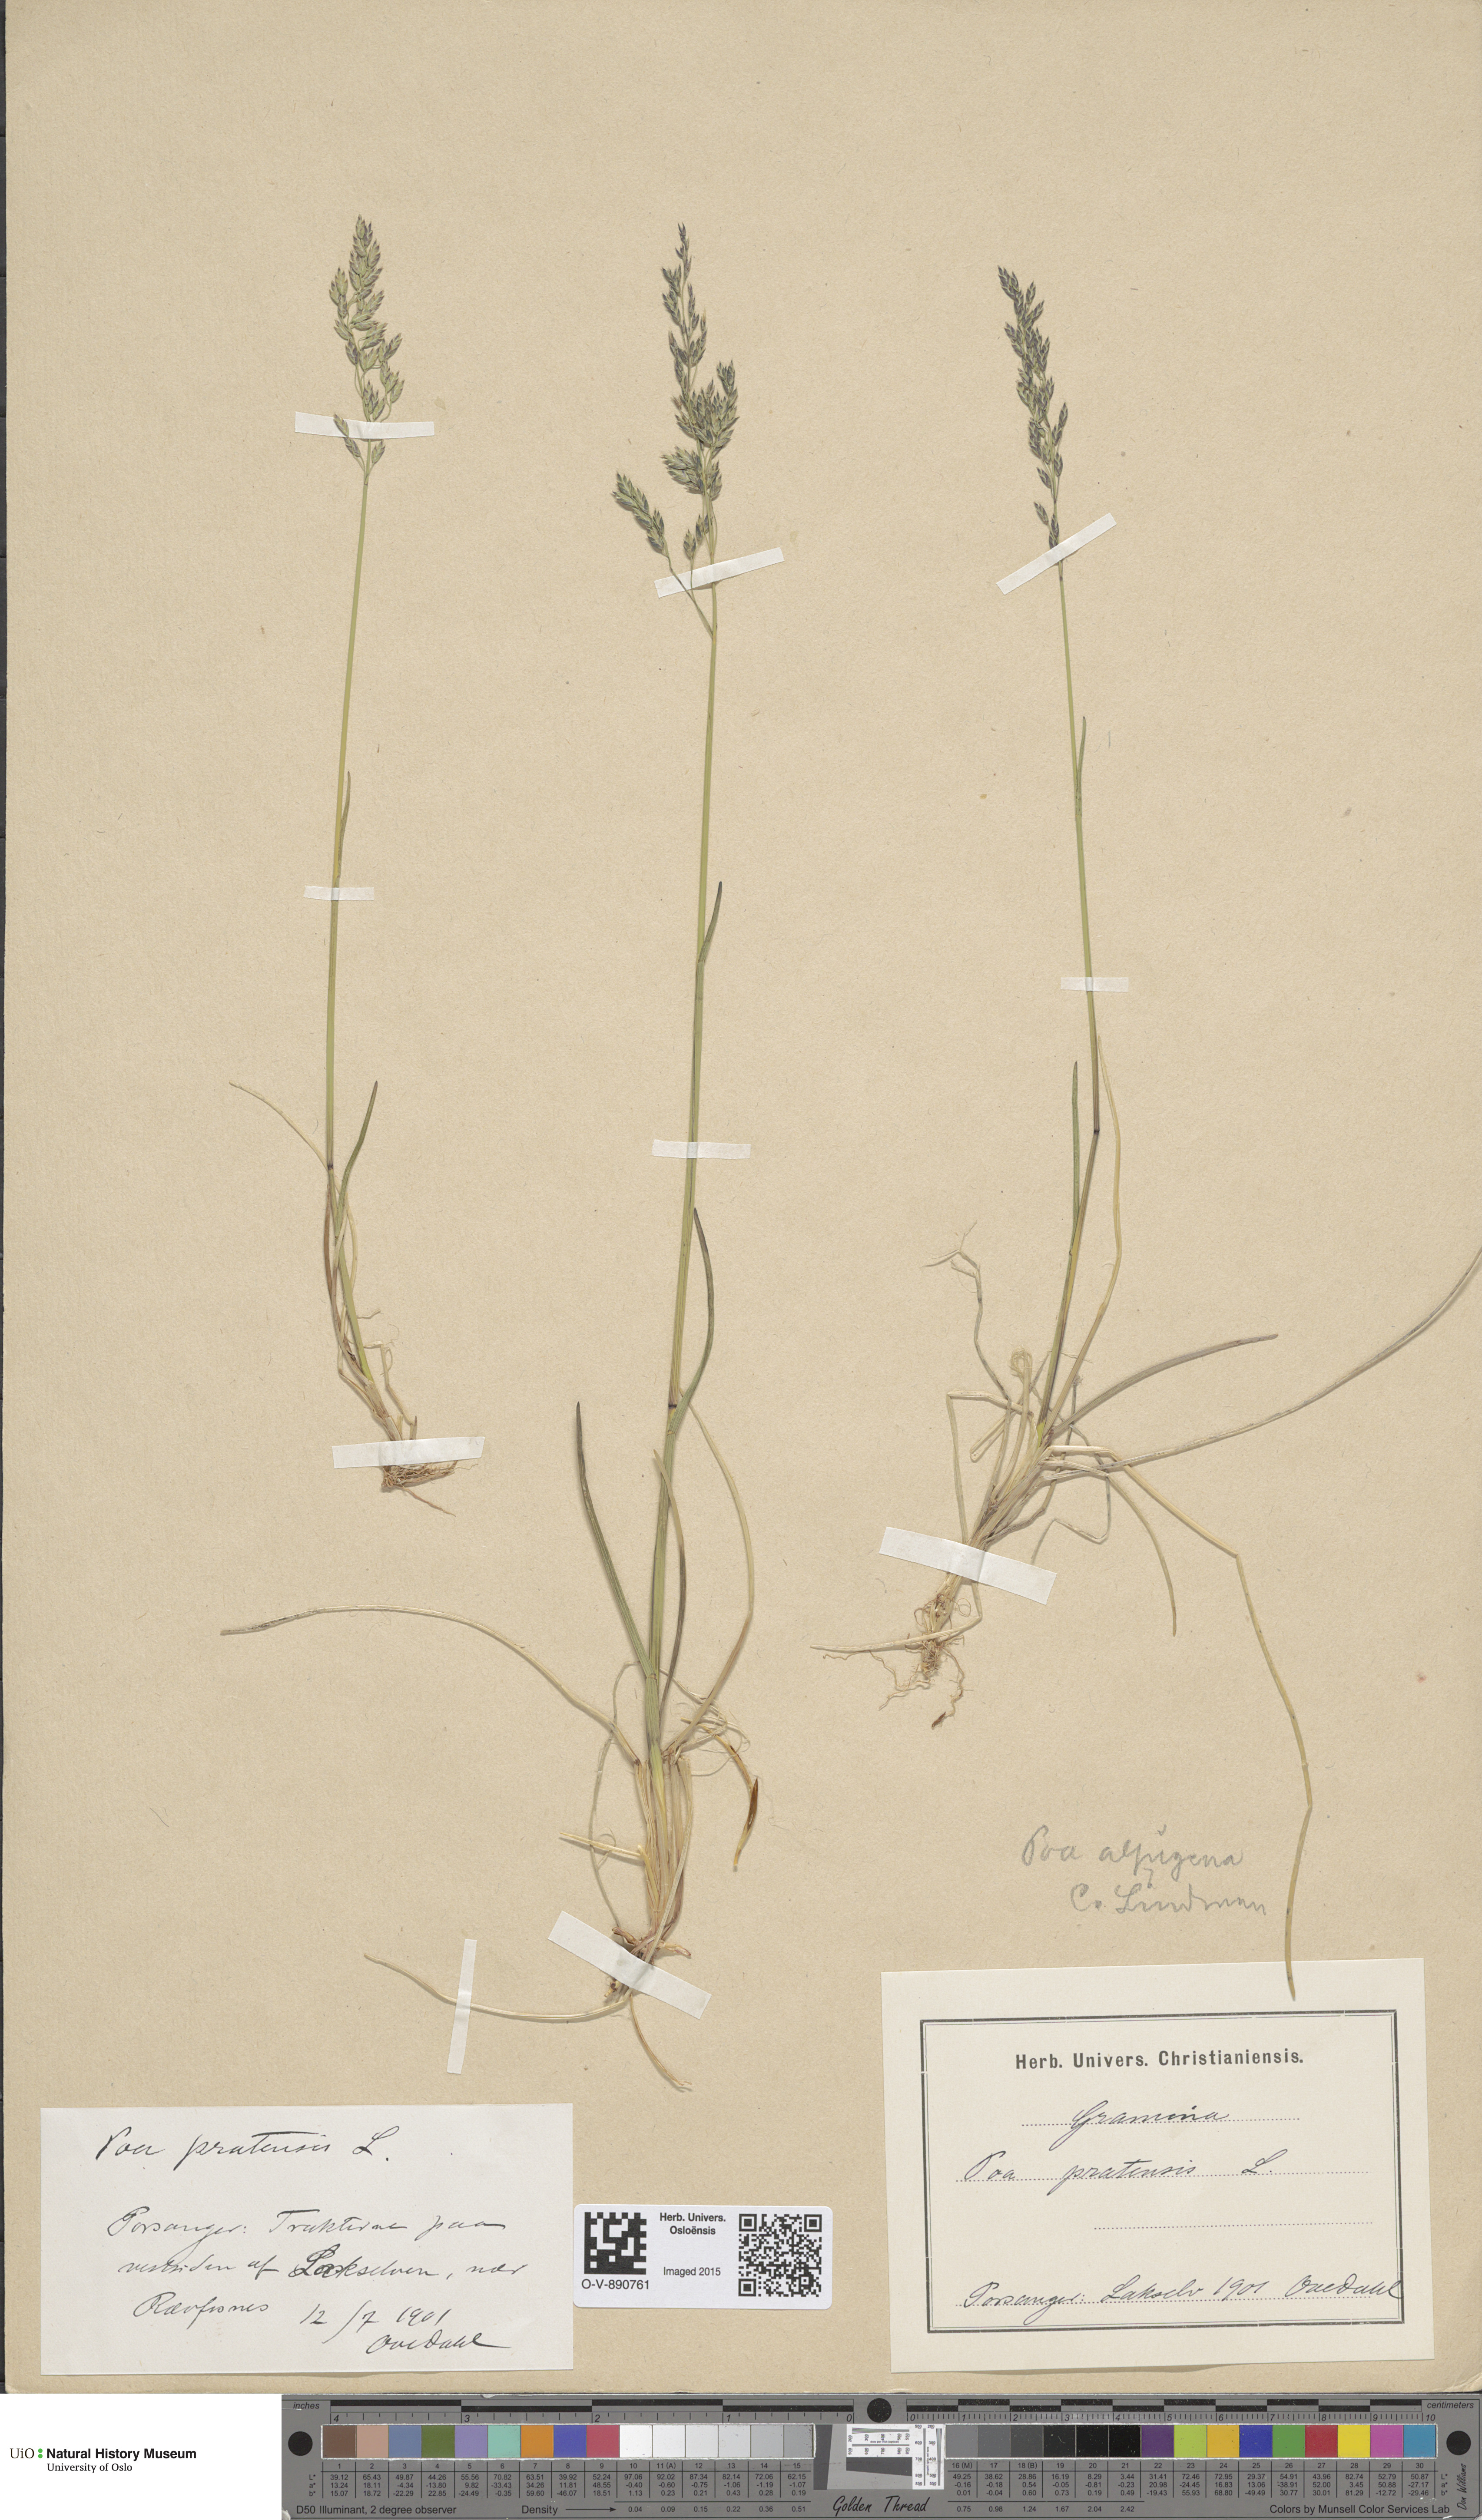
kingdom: Plantae
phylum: Tracheophyta
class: Liliopsida
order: Poales
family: Poaceae
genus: Poa
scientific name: Poa alpigena
